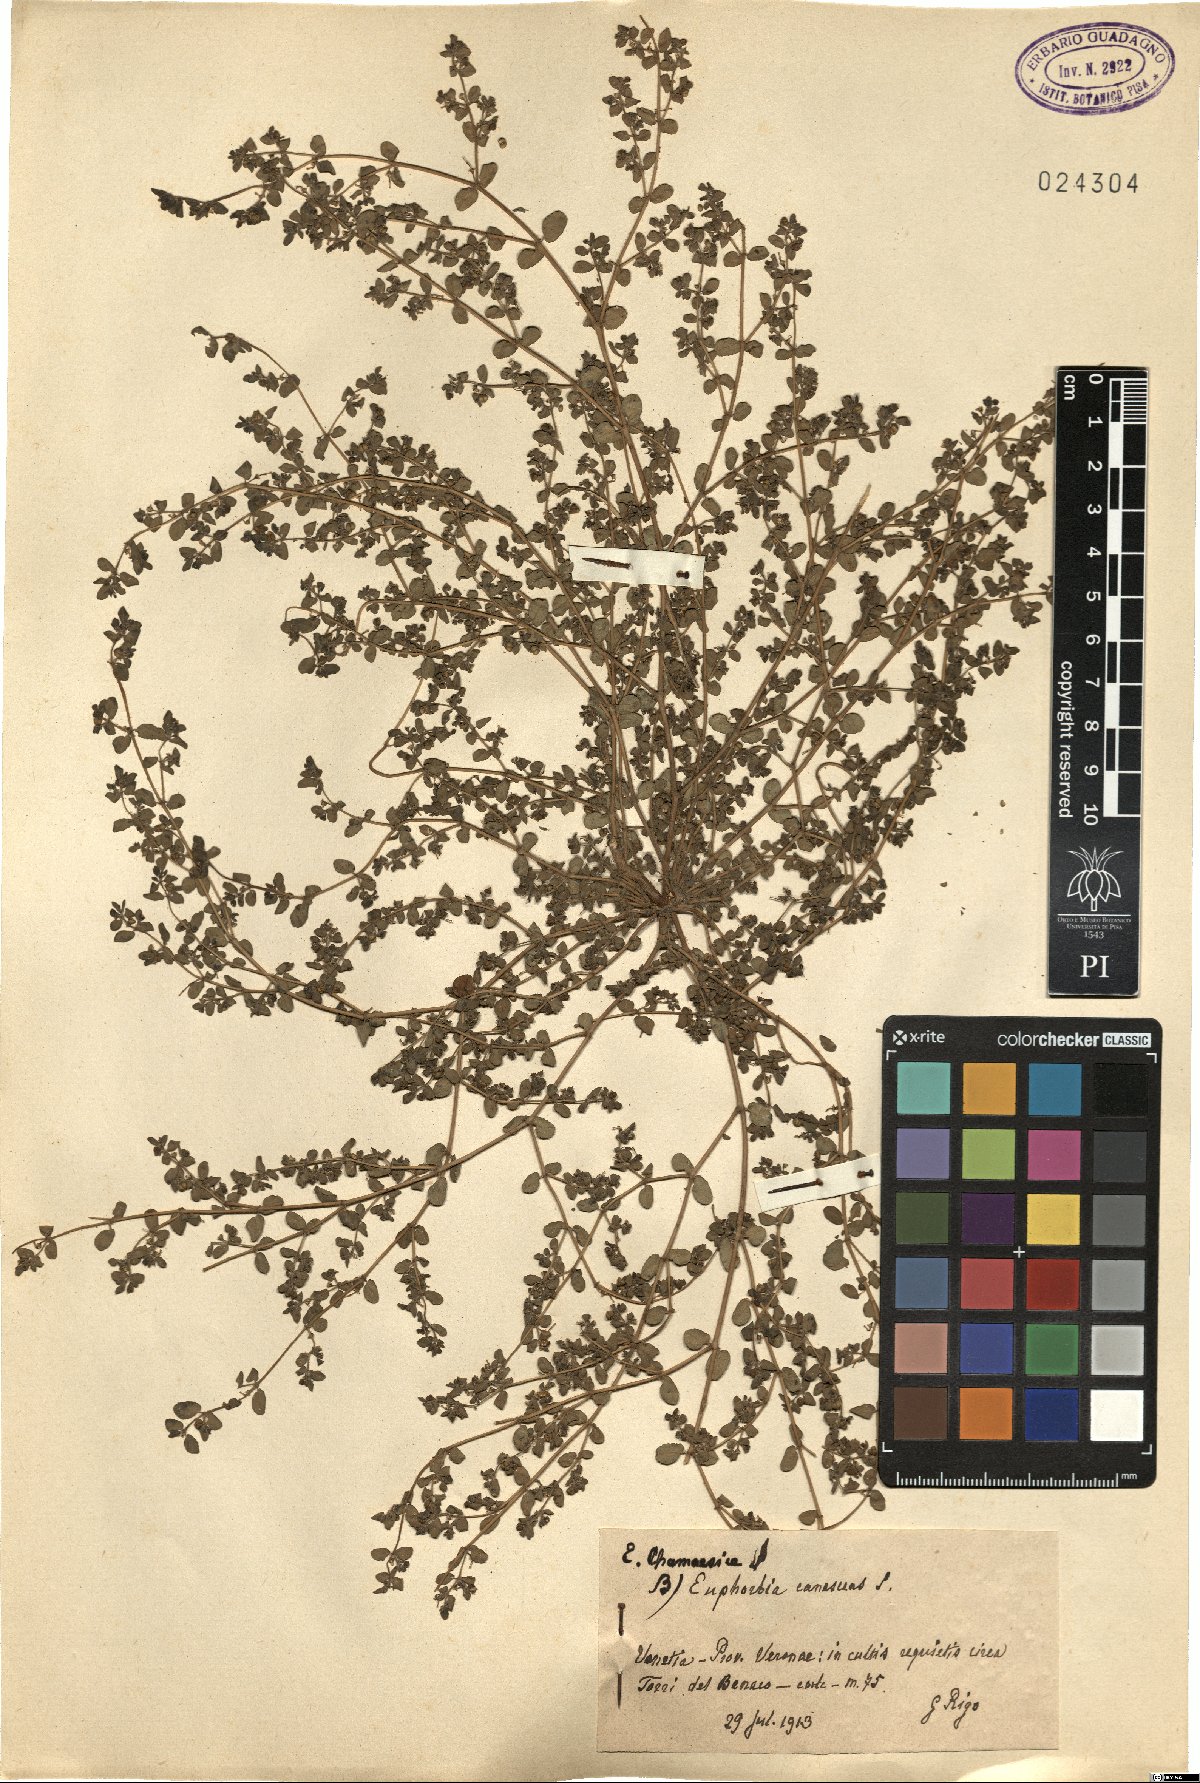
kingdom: Plantae
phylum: Tracheophyta
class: Magnoliopsida
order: Malpighiales
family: Euphorbiaceae
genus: Euphorbia
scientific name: Euphorbia chamaesyce
